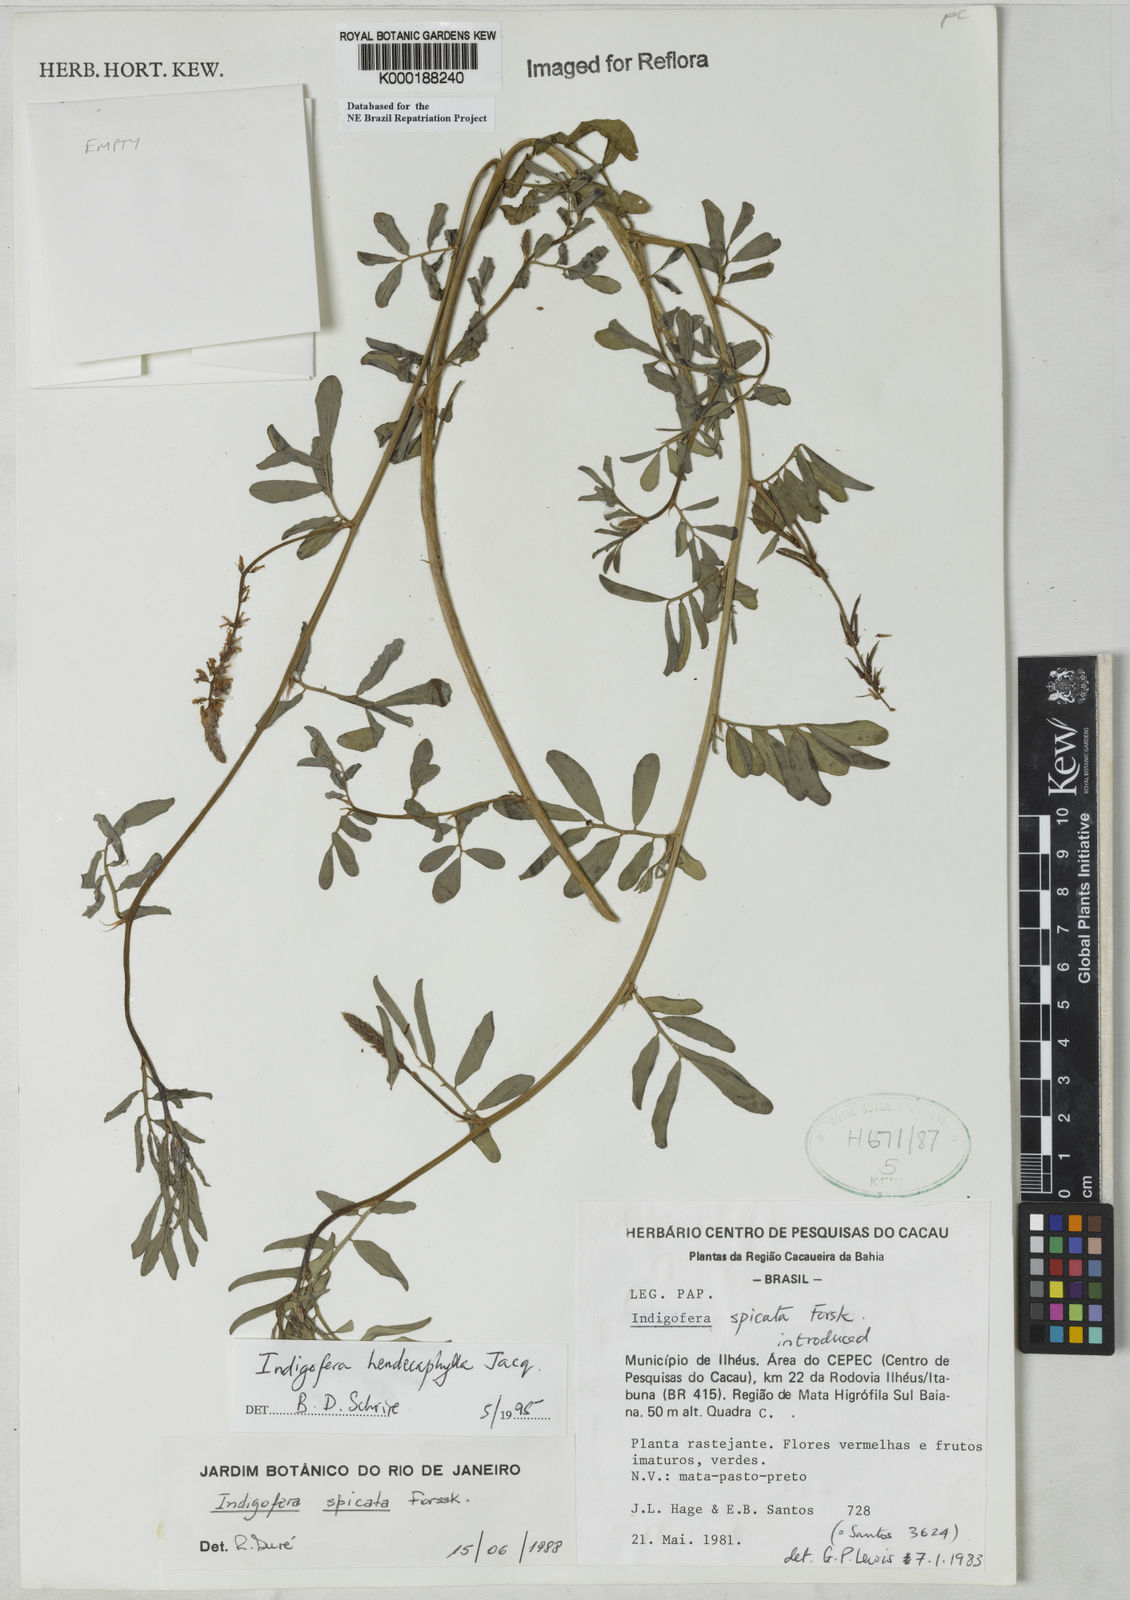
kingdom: Plantae
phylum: Tracheophyta
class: Magnoliopsida
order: Fabales
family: Fabaceae
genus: Indigofera
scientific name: Indigofera hendecaphylla
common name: Trailing indigo
